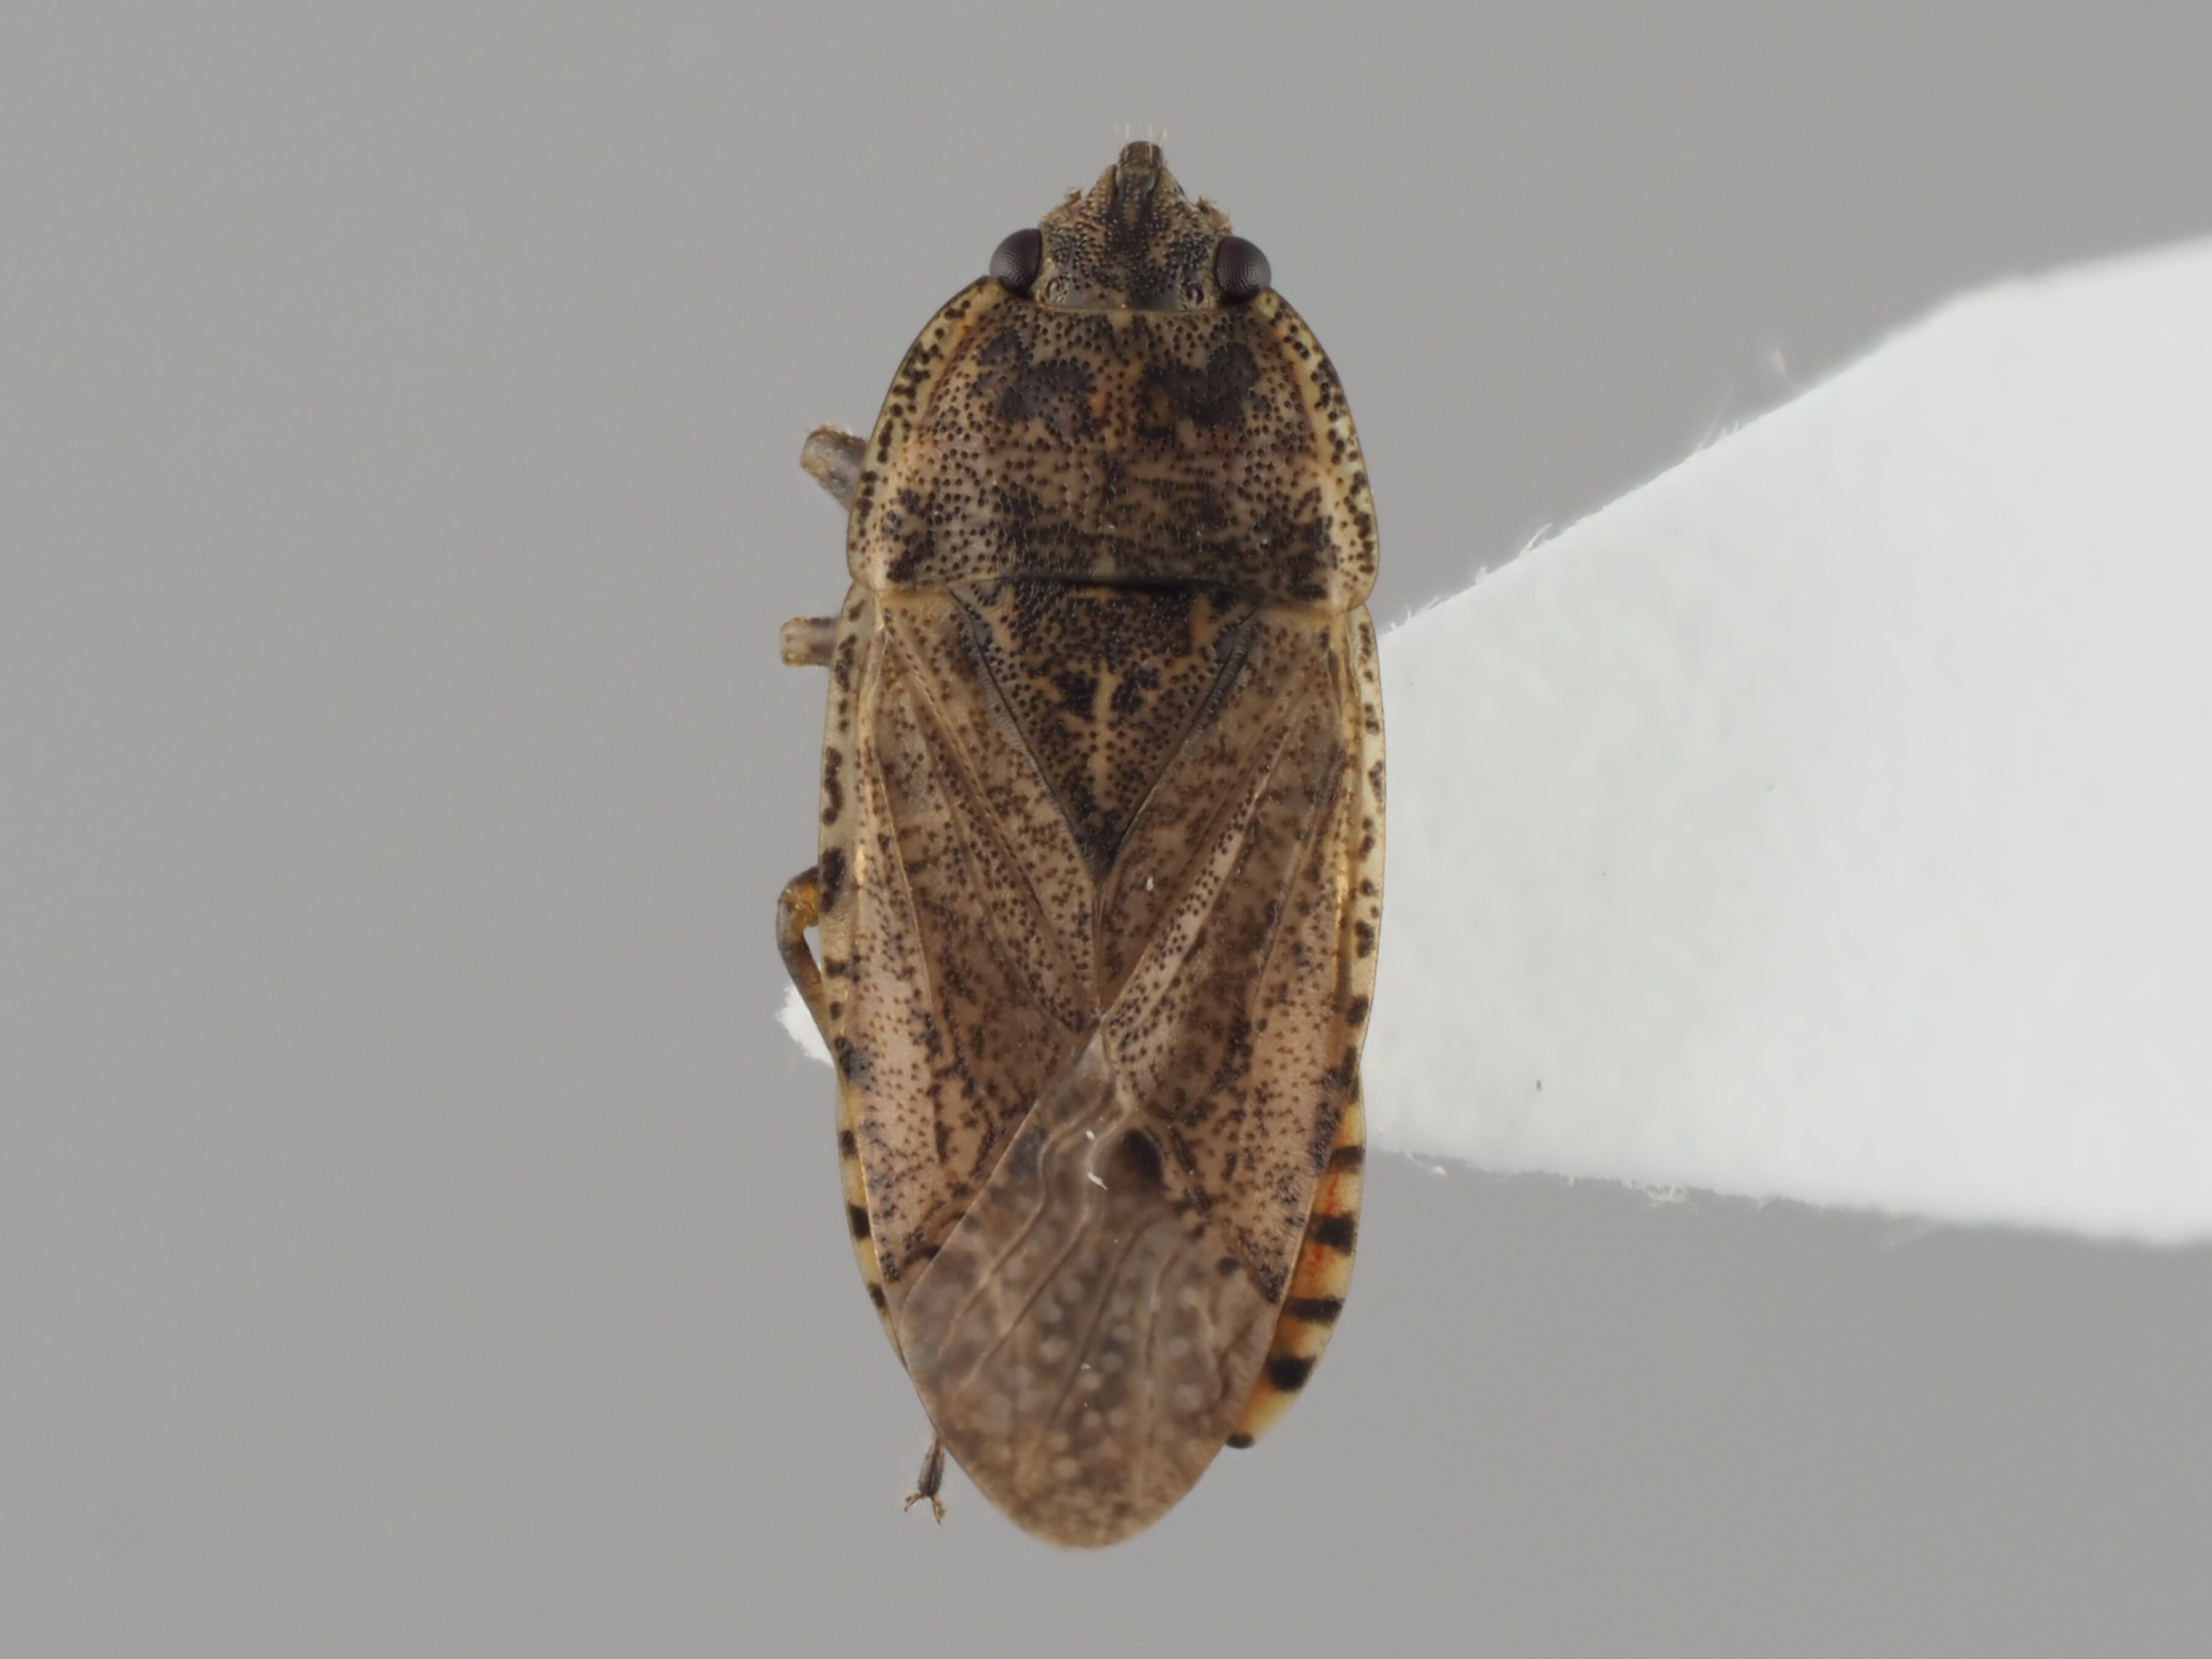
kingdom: Animalia
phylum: Arthropoda
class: Insecta
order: Hemiptera
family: Rhyparochromidae
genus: Emblethis
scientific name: Emblethis denticollis
